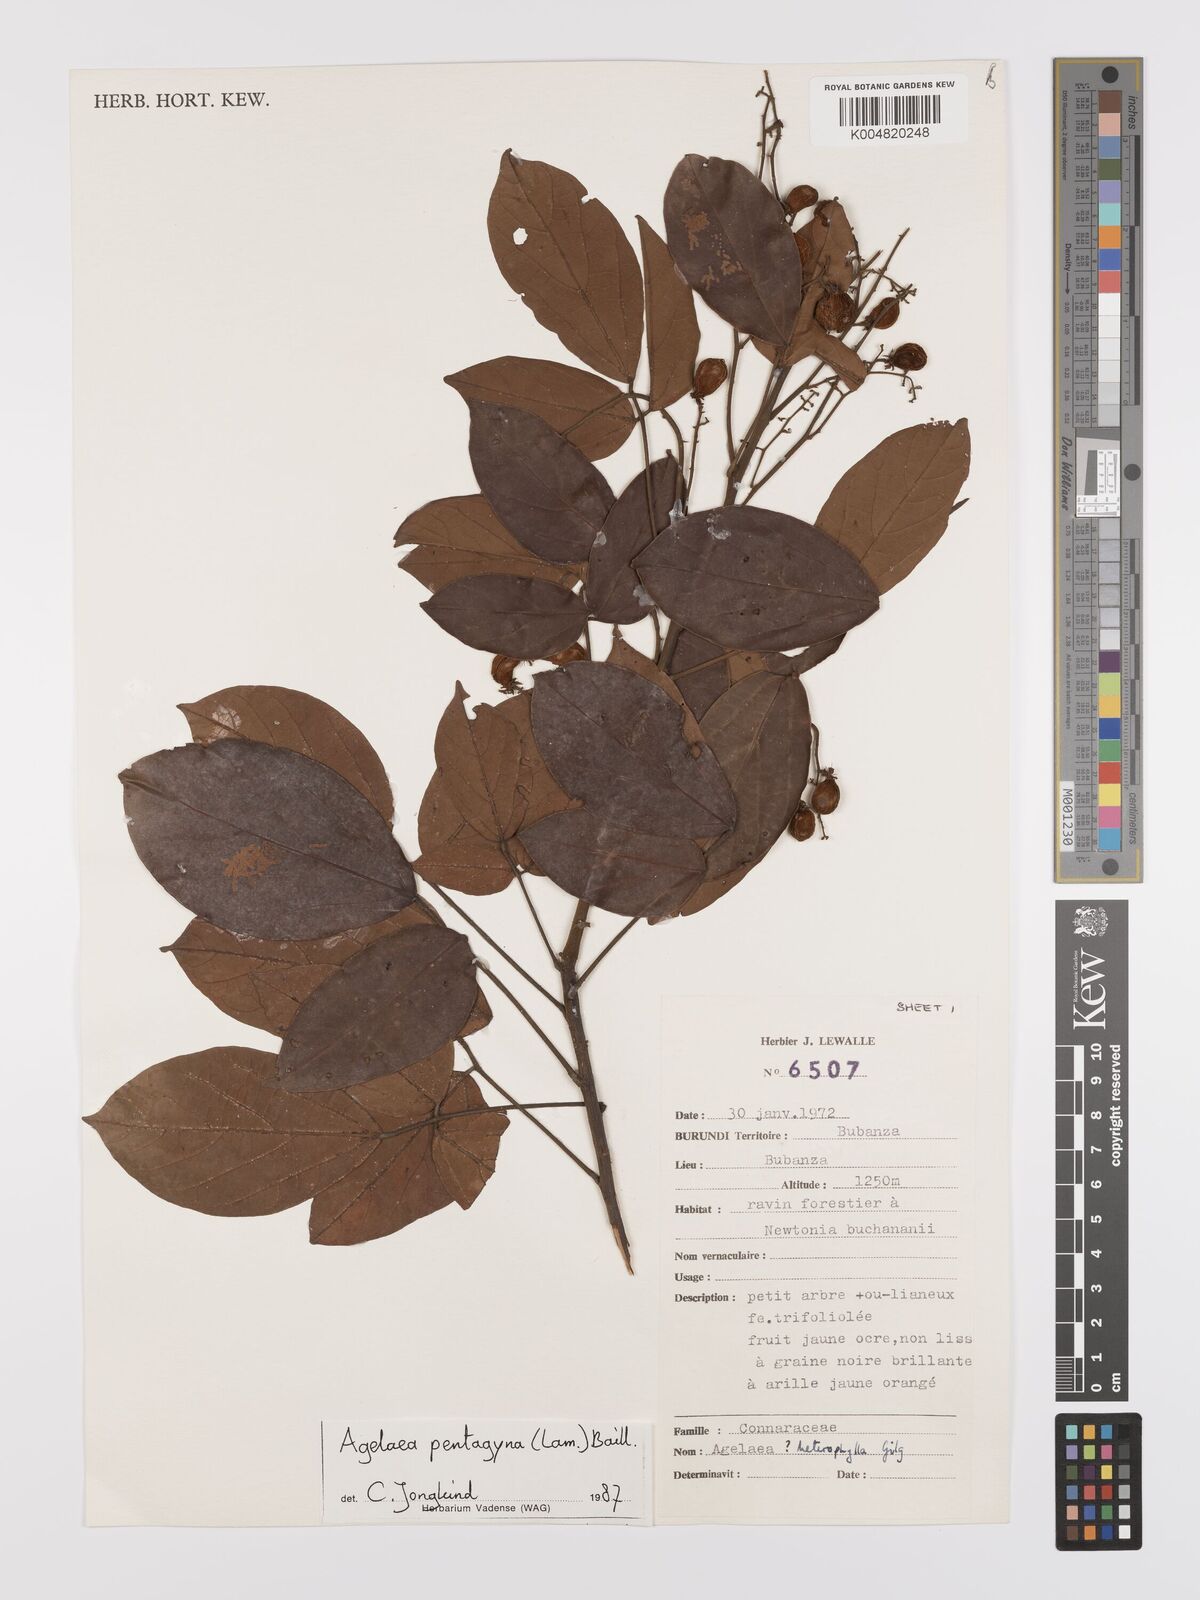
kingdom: Plantae
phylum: Tracheophyta
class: Magnoliopsida
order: Oxalidales
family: Connaraceae
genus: Agelaea
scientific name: Agelaea pentagyna
